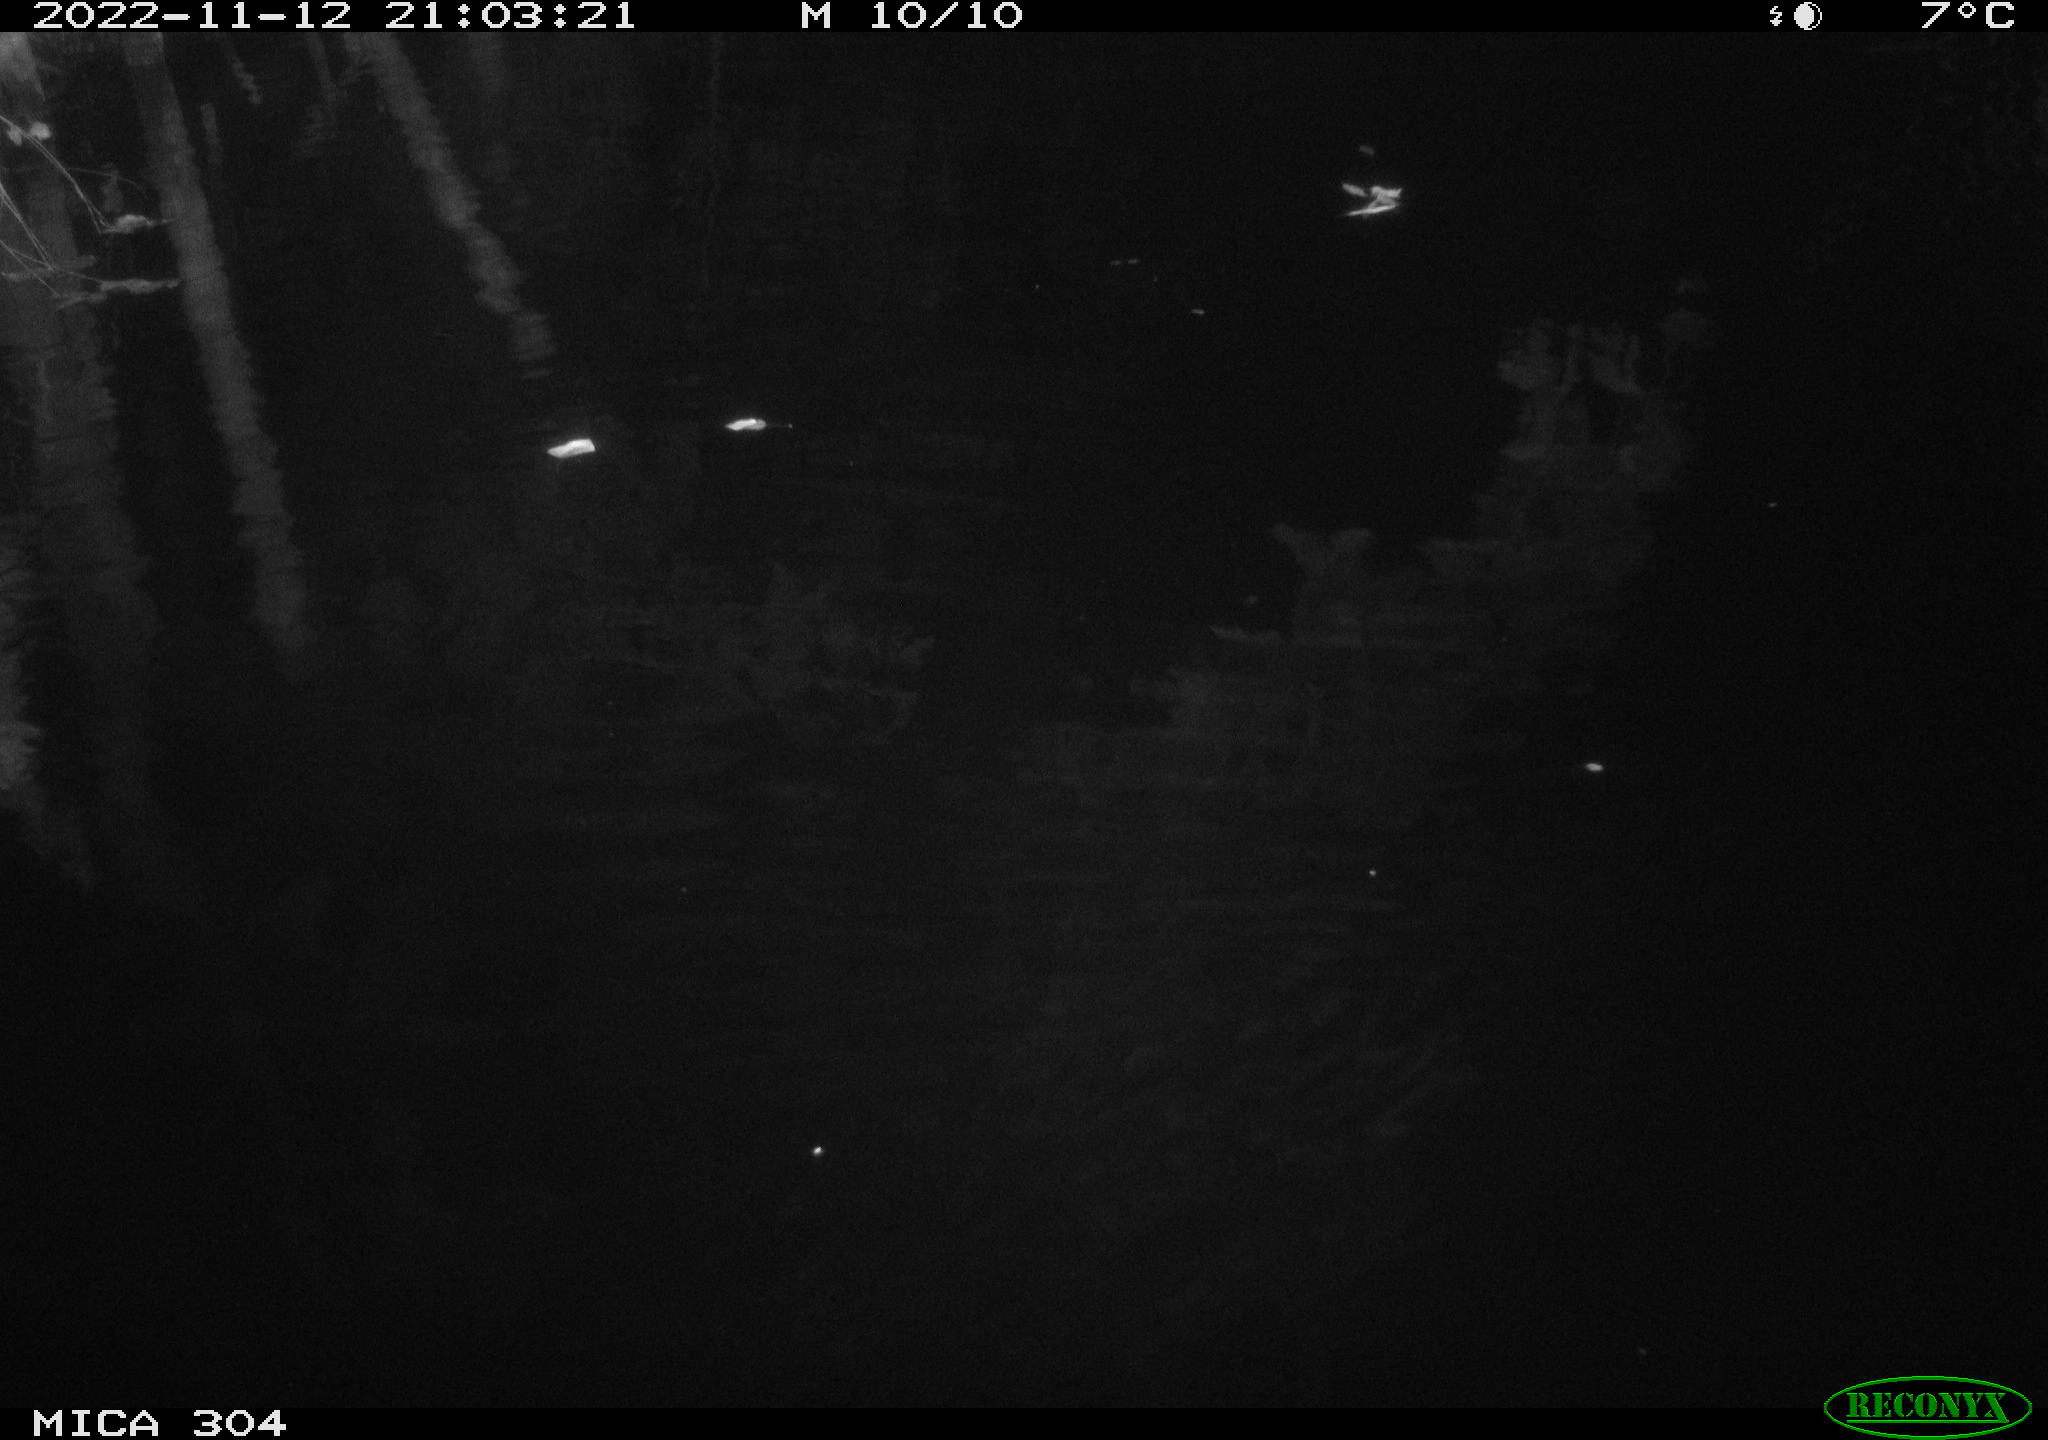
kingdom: Animalia
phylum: Chordata
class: Mammalia
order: Rodentia
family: Muridae
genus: Rattus
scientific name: Rattus norvegicus
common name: Brown rat
